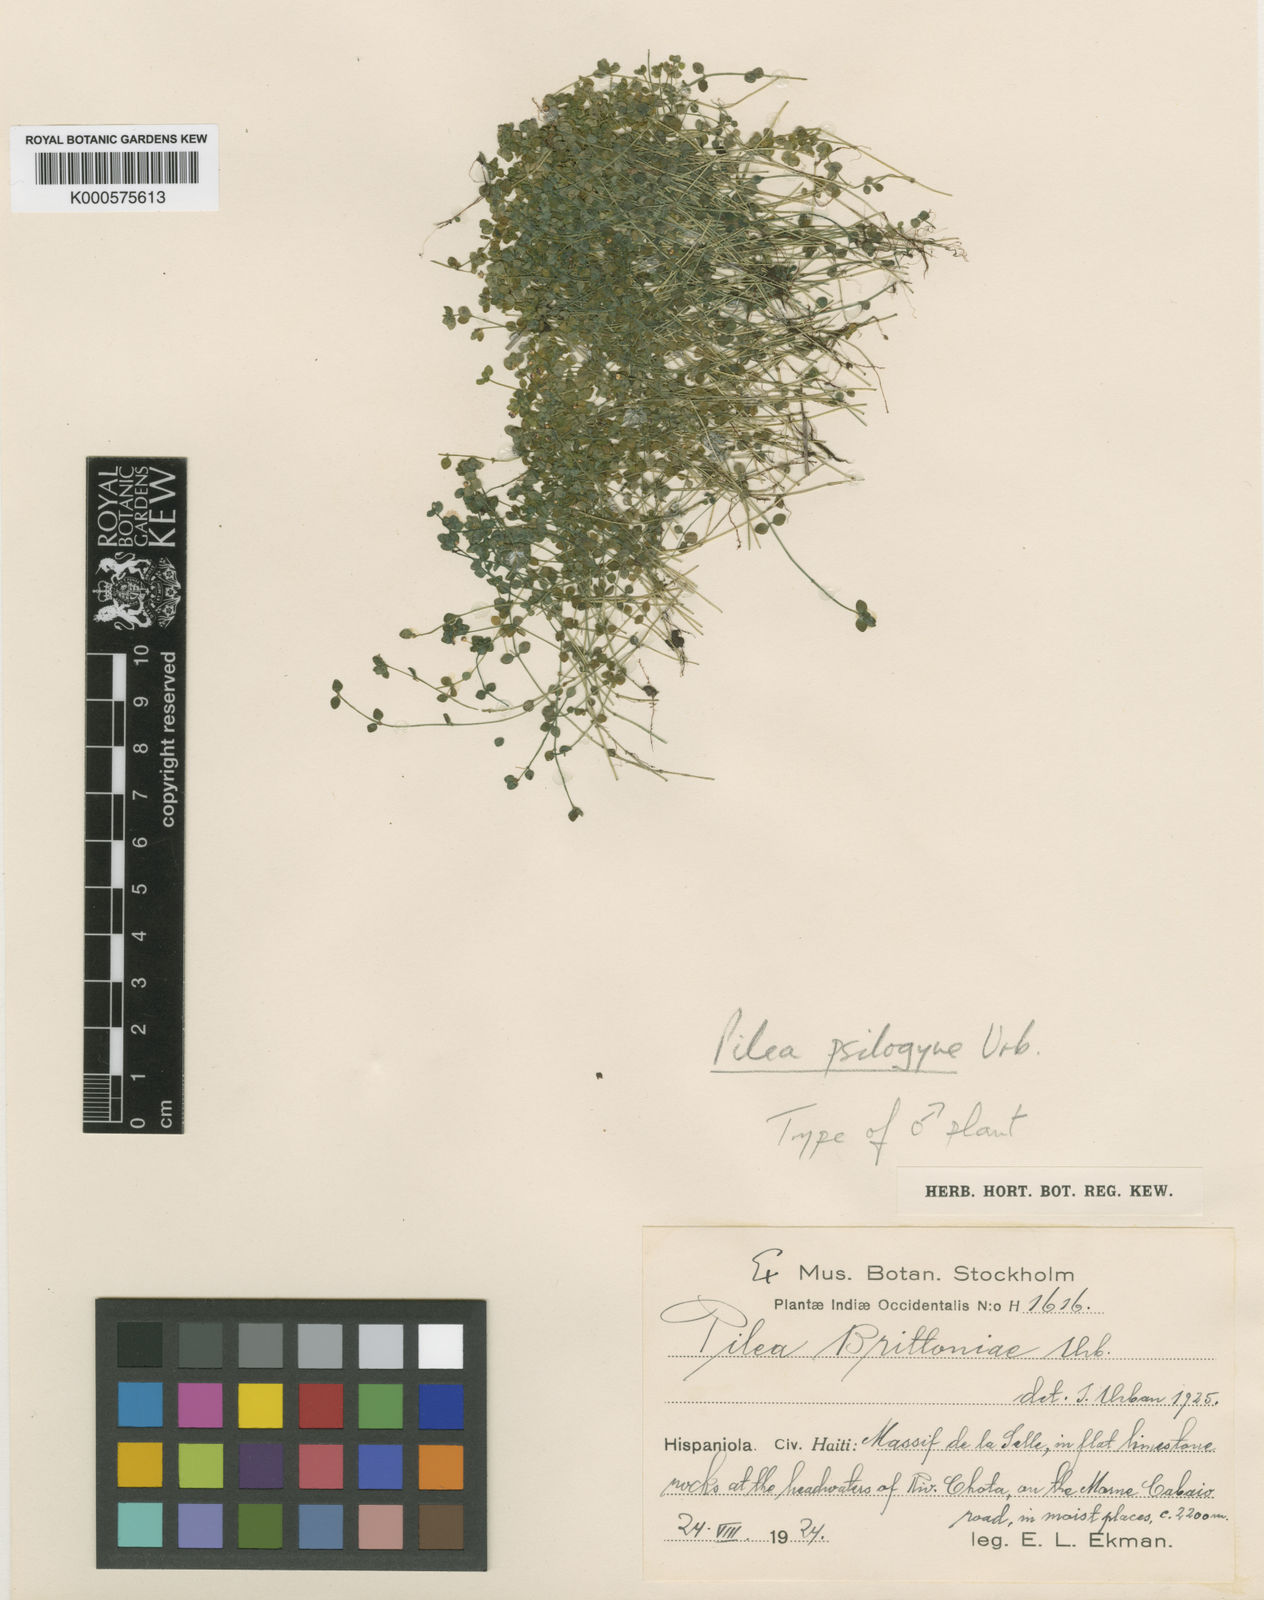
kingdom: Plantae
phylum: Tracheophyta
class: Magnoliopsida
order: Rosales
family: Urticaceae
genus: Pilea
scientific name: Pilea psilogyne
